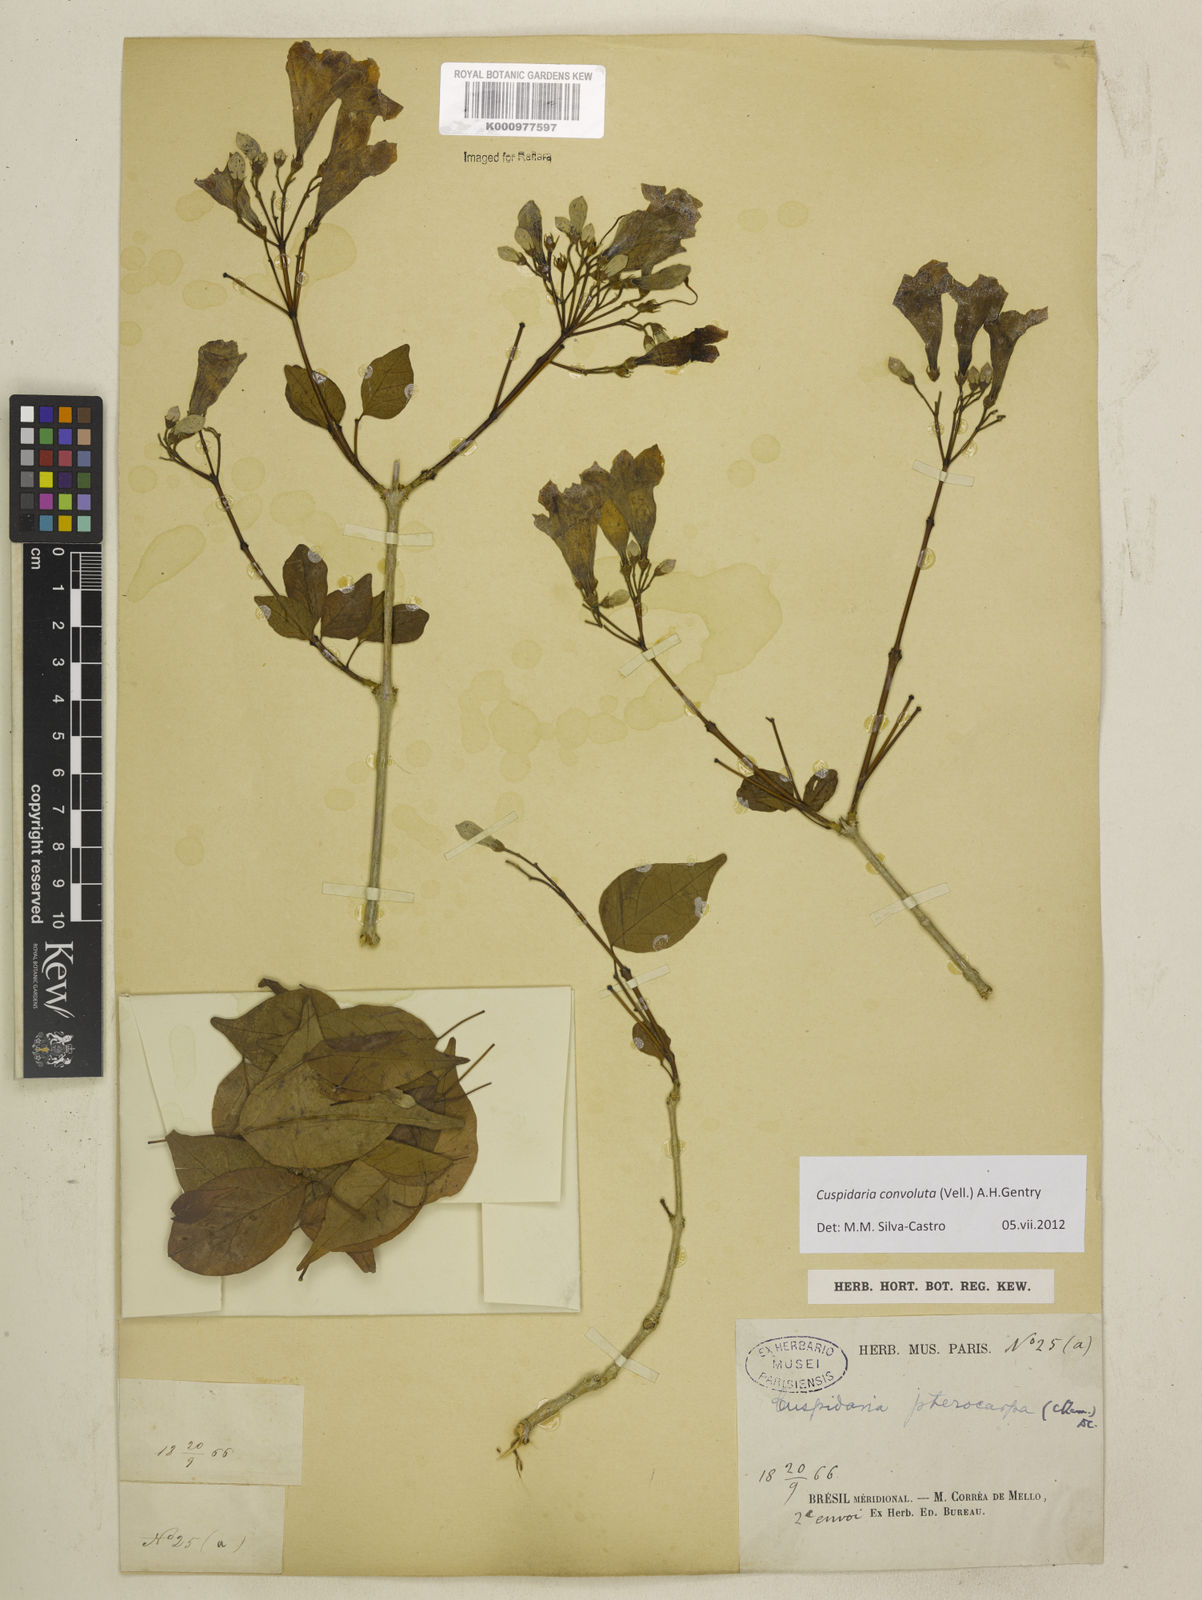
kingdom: Plantae
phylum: Tracheophyta
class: Magnoliopsida
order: Lamiales
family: Bignoniaceae
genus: Cuspidaria
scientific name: Cuspidaria convoluta
